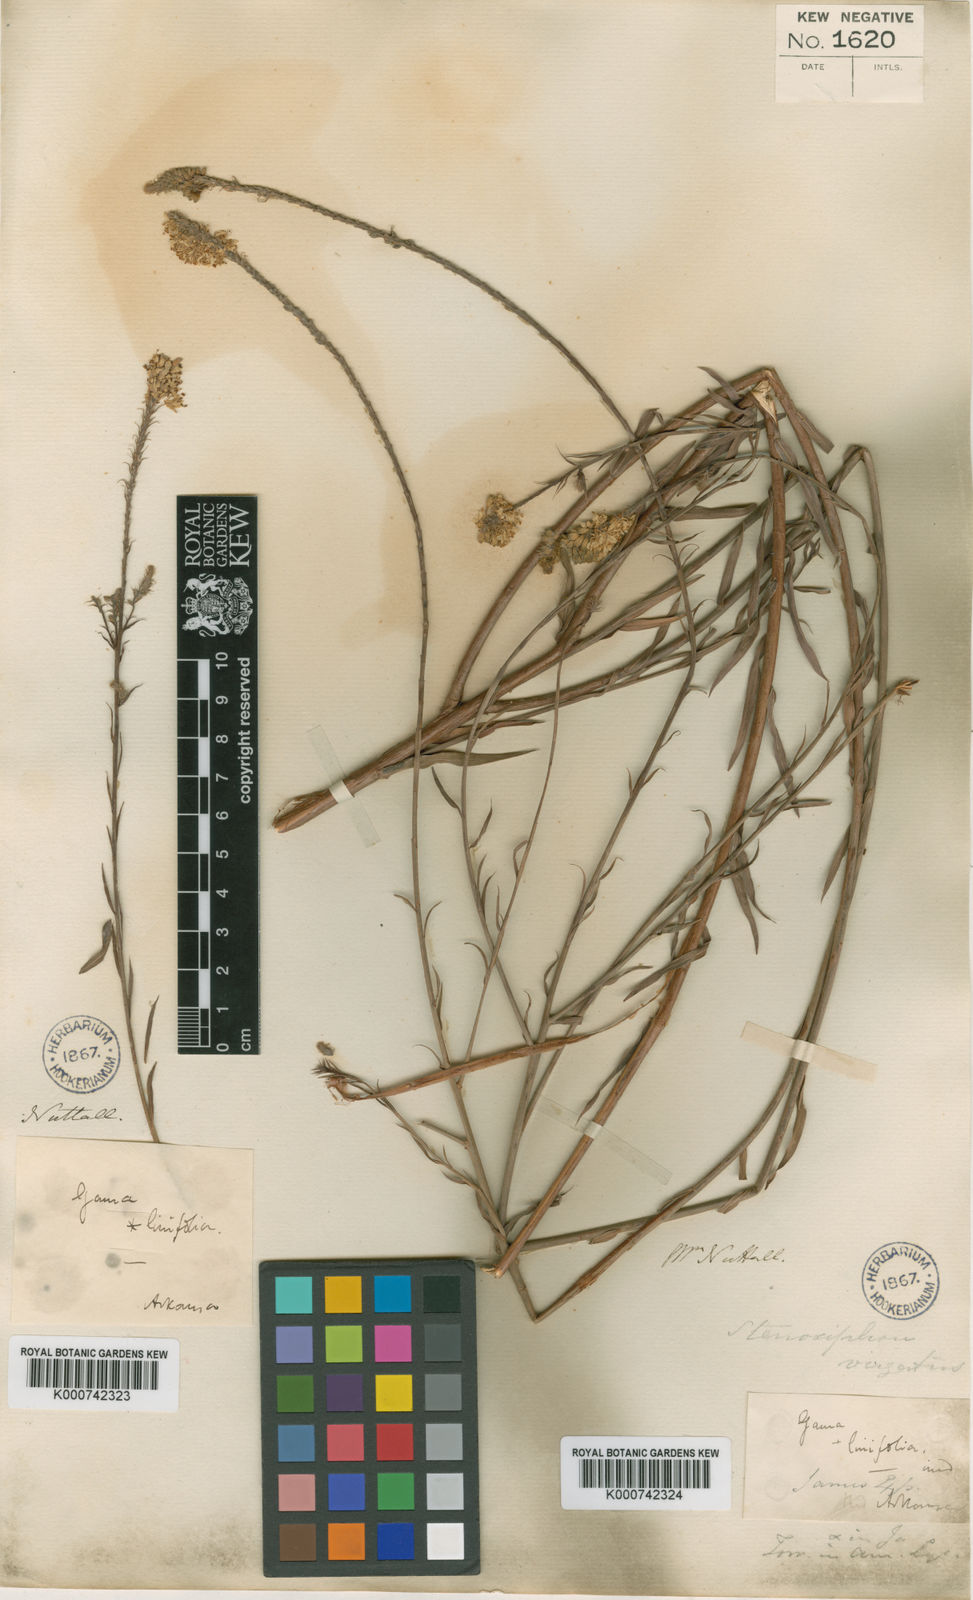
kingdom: Plantae
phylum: Tracheophyta
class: Magnoliopsida
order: Myrtales
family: Onagraceae
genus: Oenothera
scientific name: Oenothera glaucifolia
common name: False gaura
